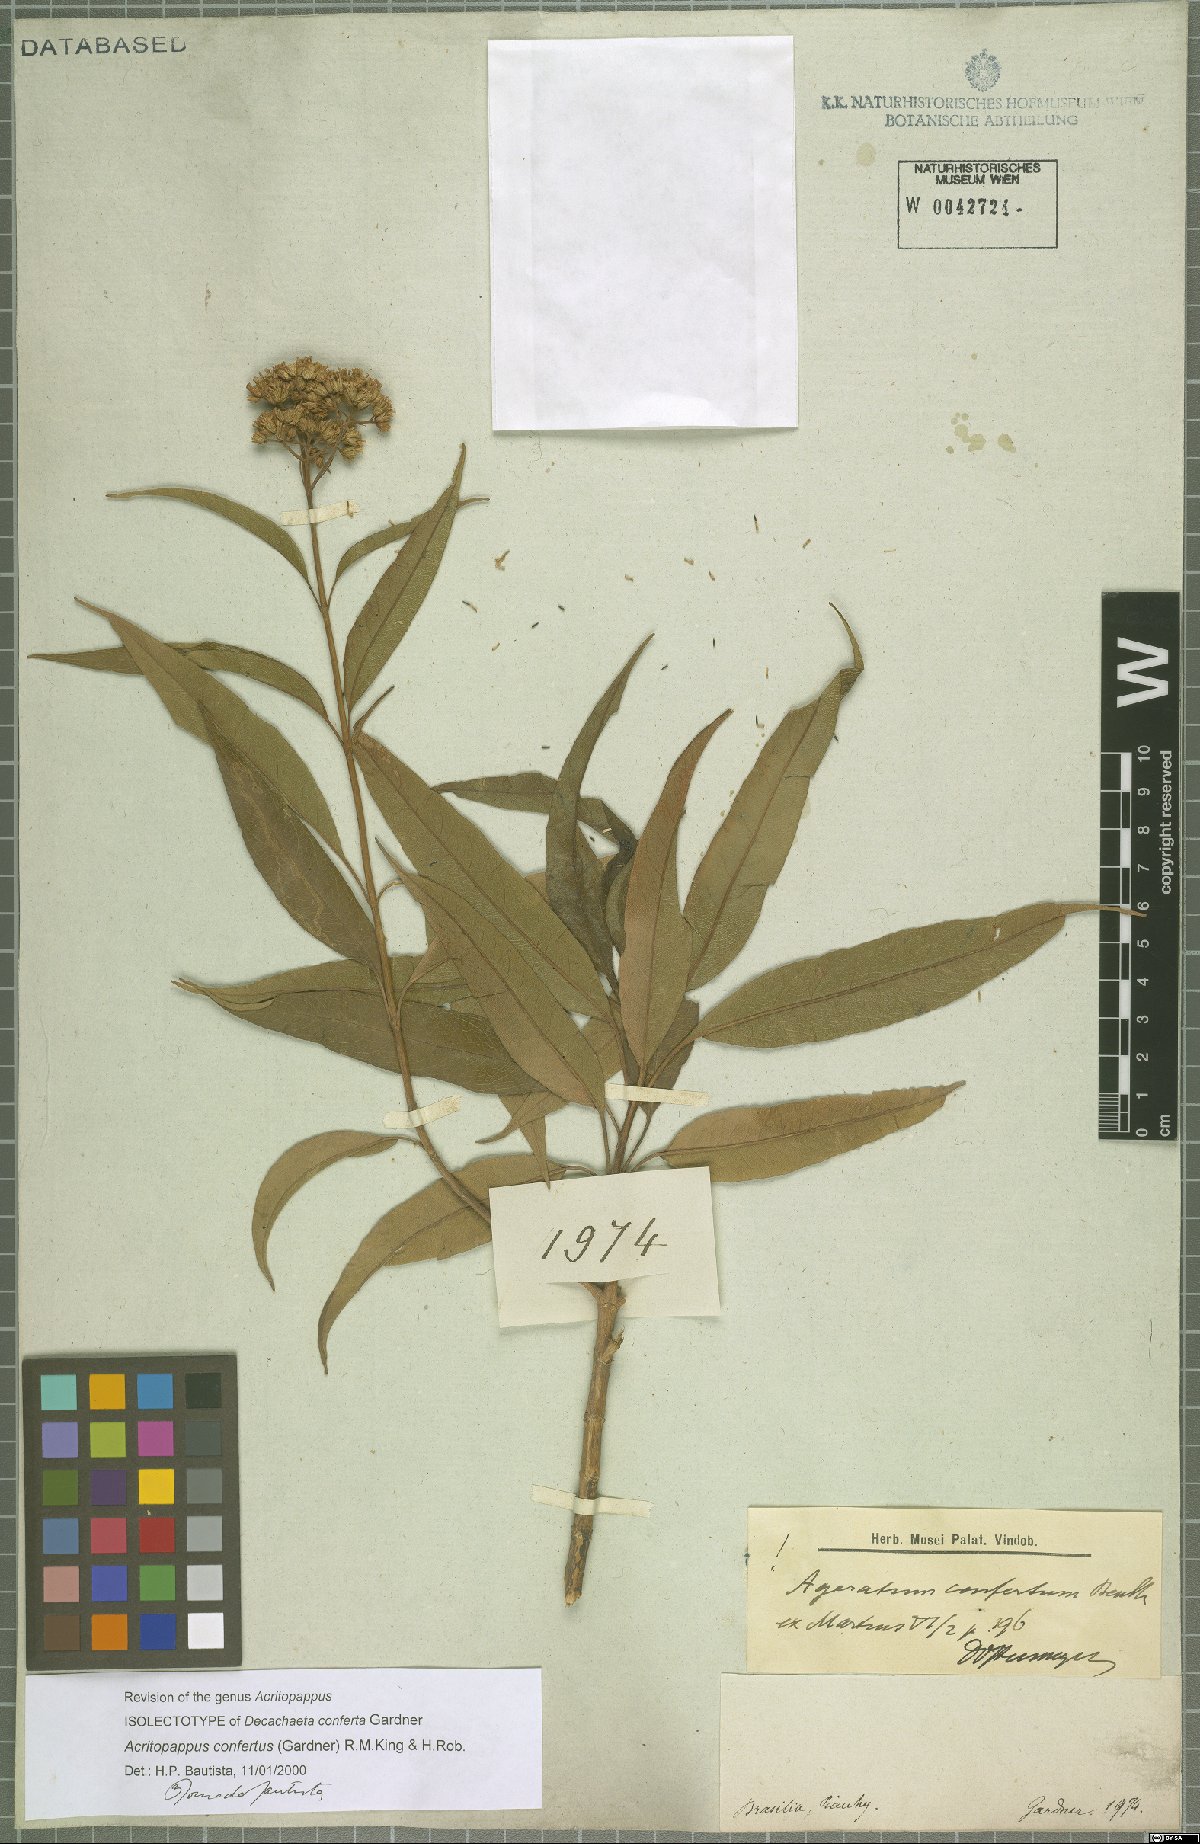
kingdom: Plantae
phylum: Tracheophyta
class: Magnoliopsida
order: Asterales
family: Asteraceae
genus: Acritopappus
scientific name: Acritopappus confertus
